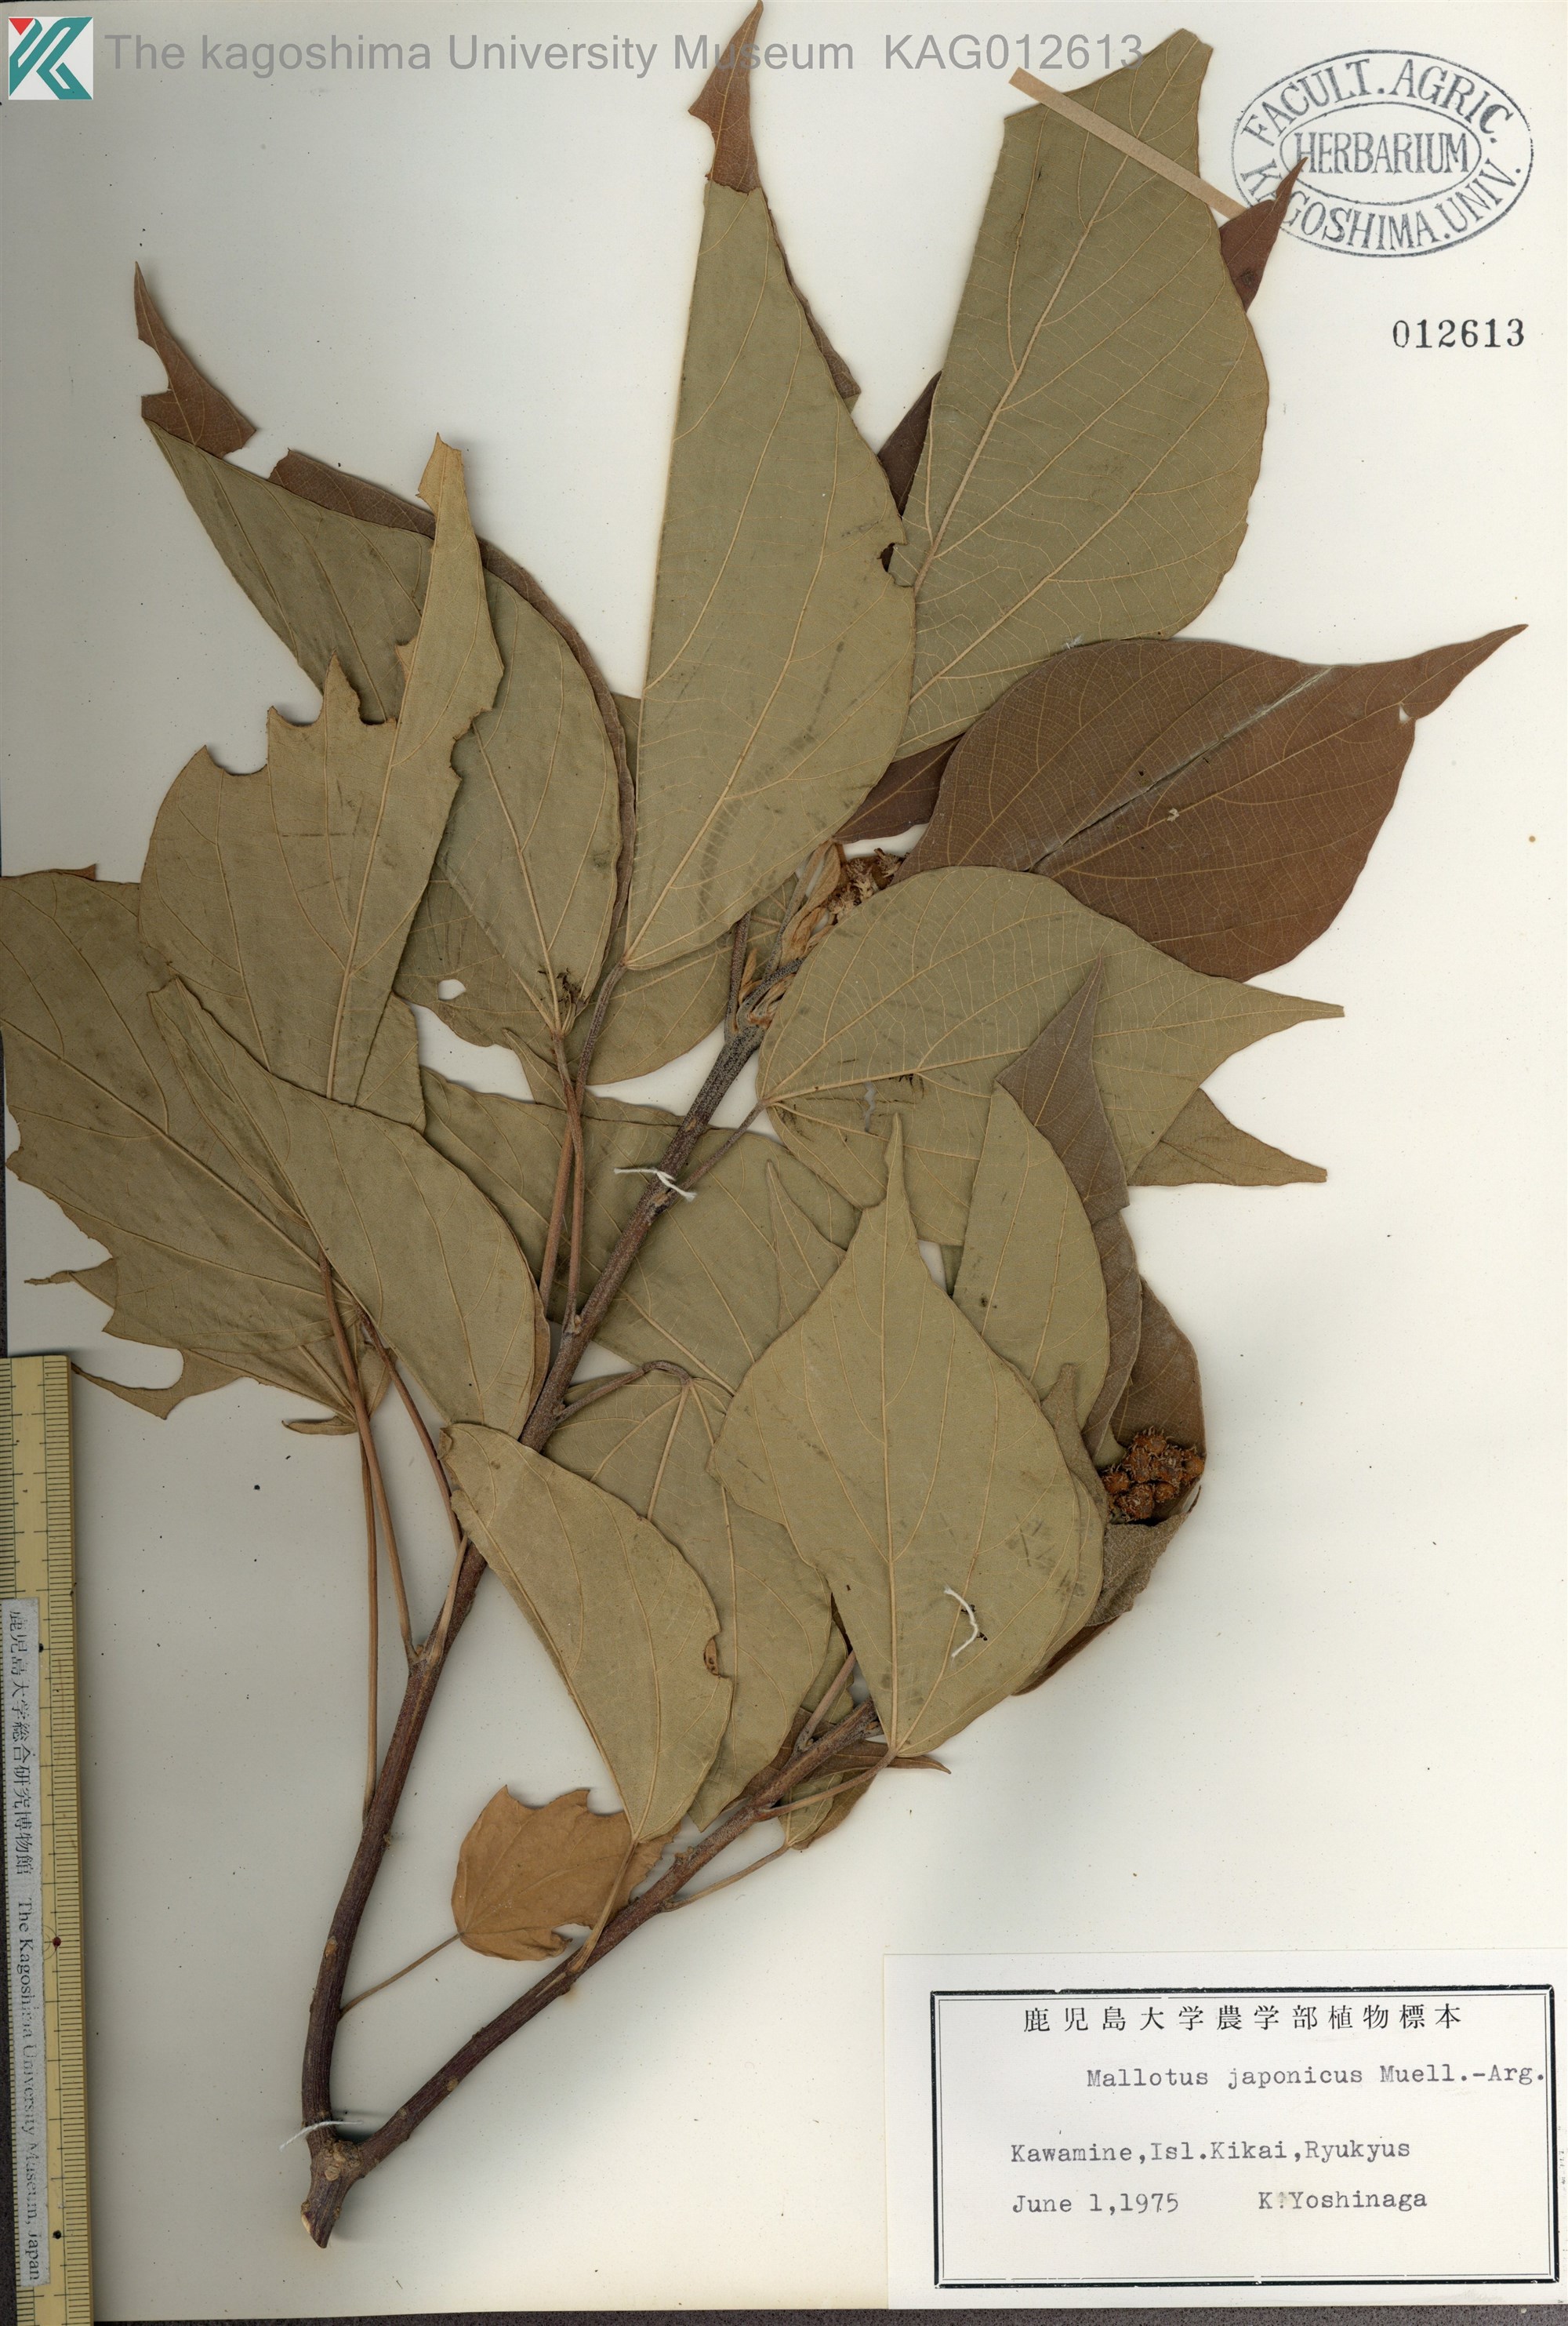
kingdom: Plantae
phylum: Tracheophyta
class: Magnoliopsida
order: Malpighiales
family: Euphorbiaceae
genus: Mallotus
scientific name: Mallotus japonicus
